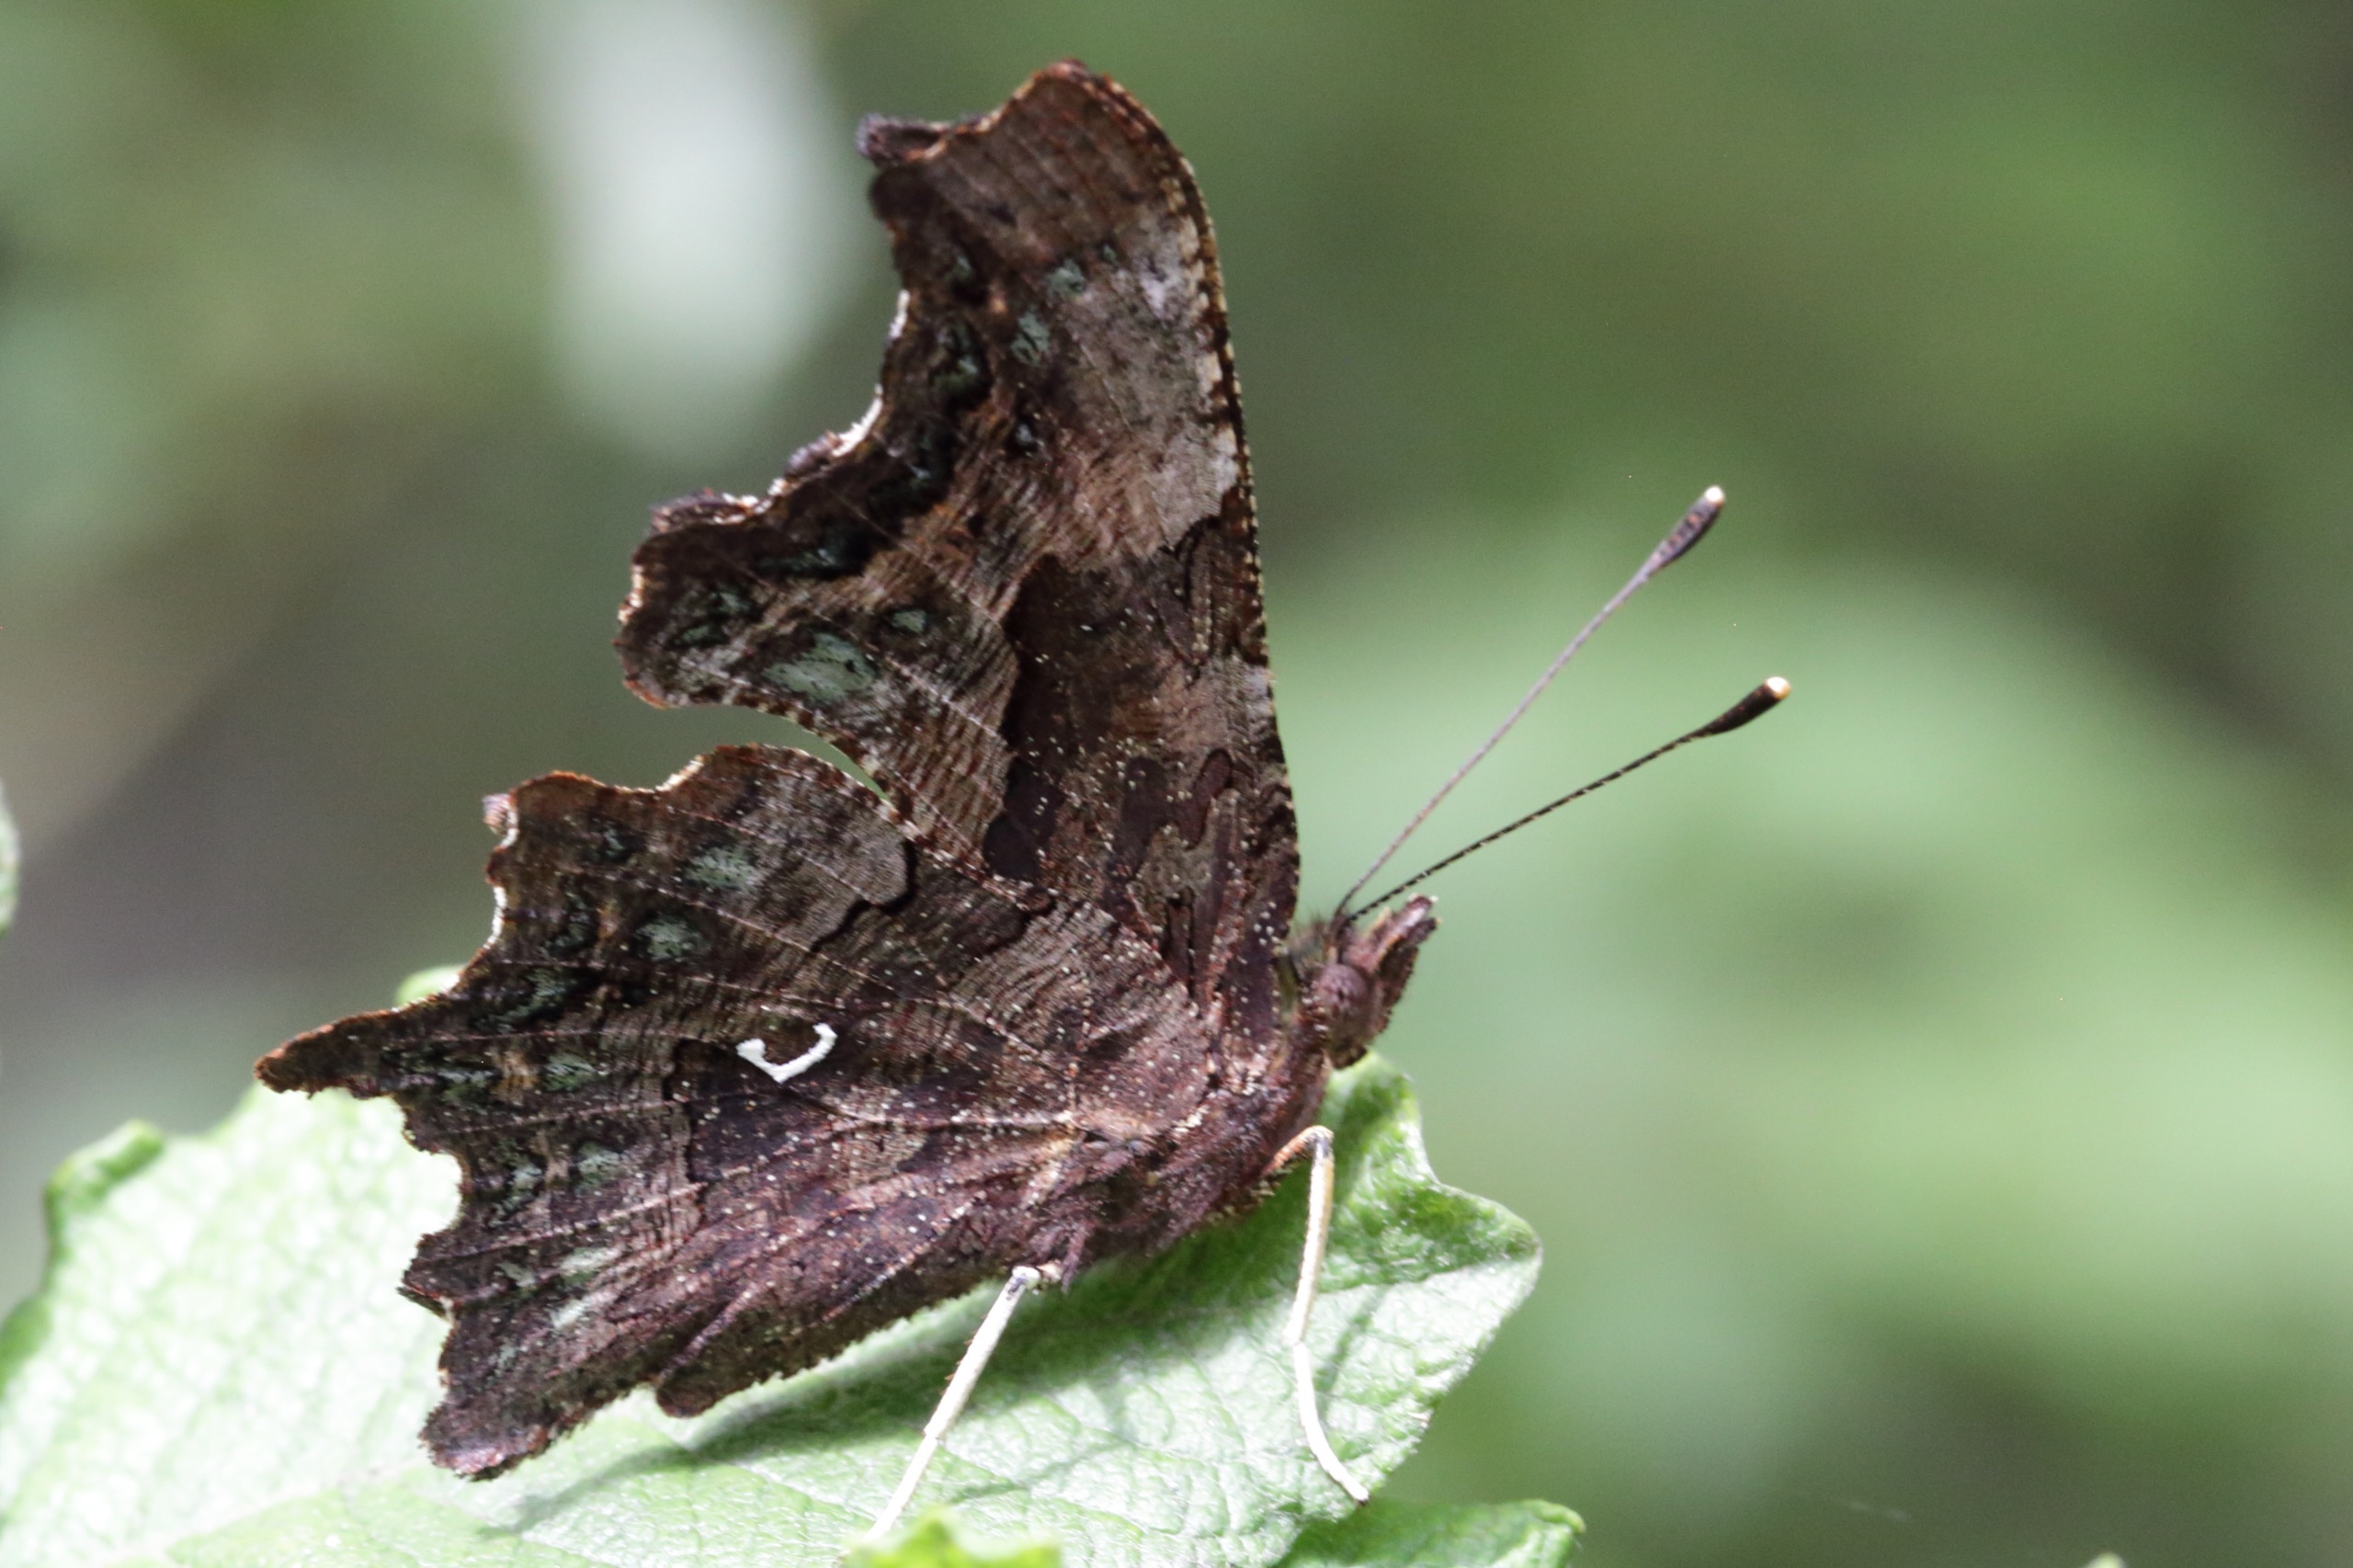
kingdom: Animalia
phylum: Arthropoda
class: Insecta
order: Lepidoptera
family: Nymphalidae
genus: Polygonia
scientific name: Polygonia c-album
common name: Det hvide C
